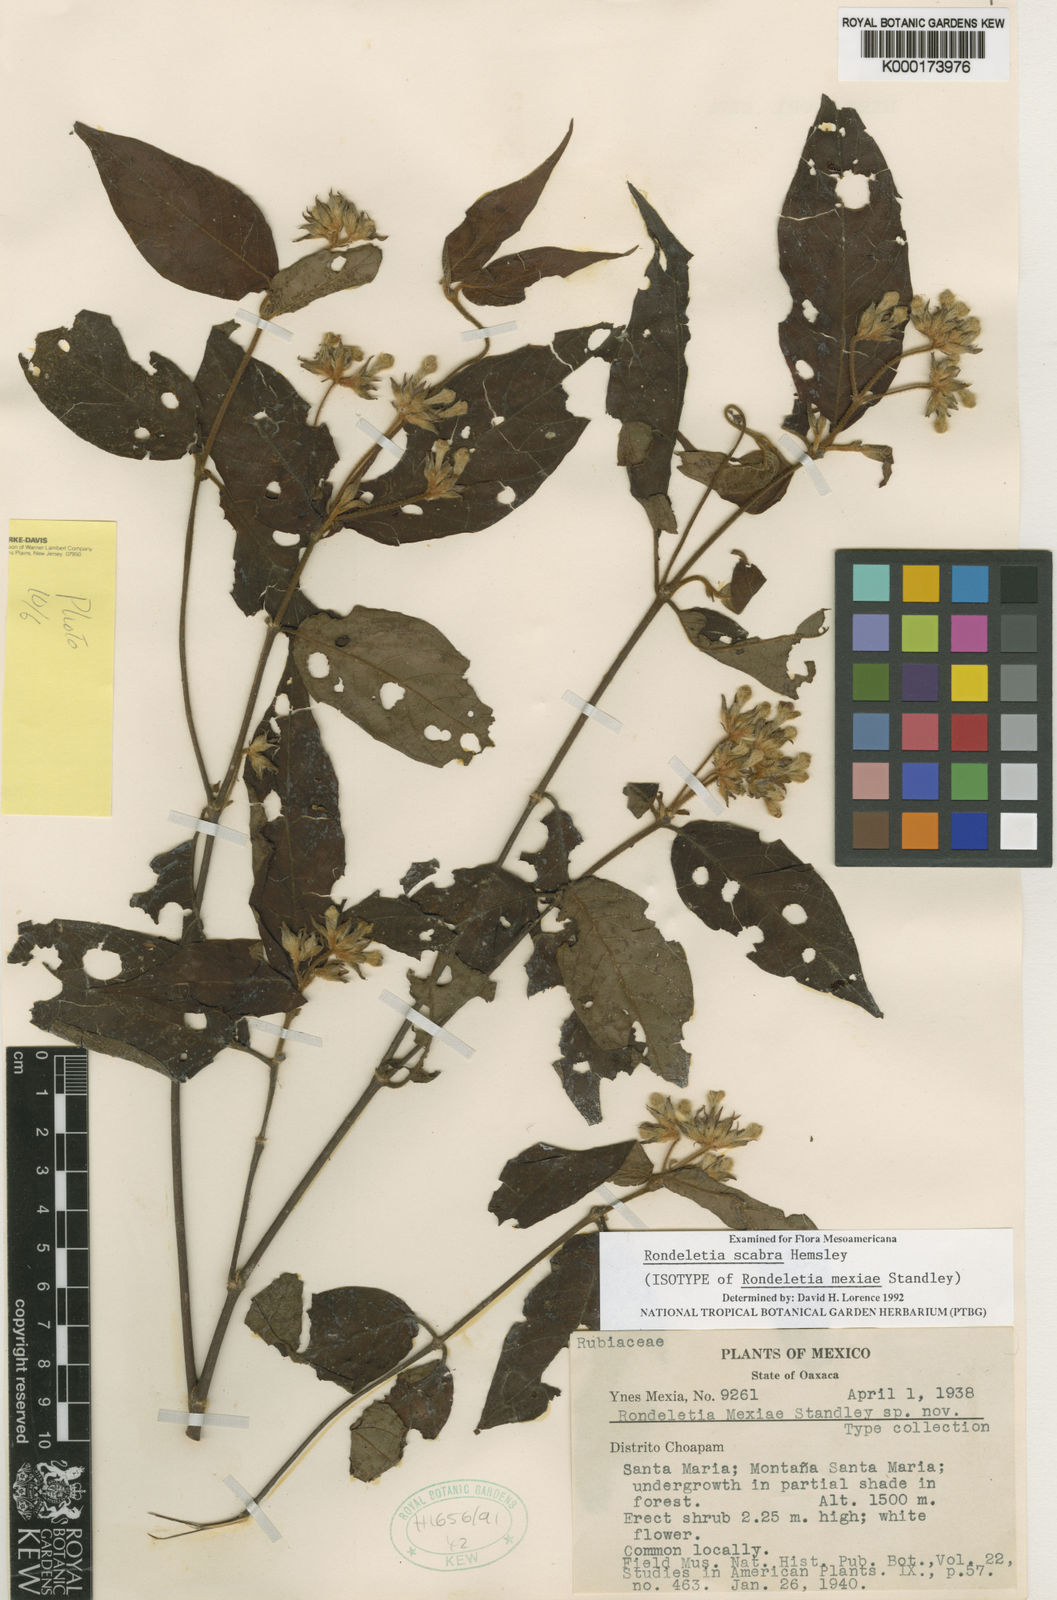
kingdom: Plantae
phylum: Tracheophyta
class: Magnoliopsida
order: Gentianales
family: Rubiaceae
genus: Arachnothryx
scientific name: Arachnothryx scabra
